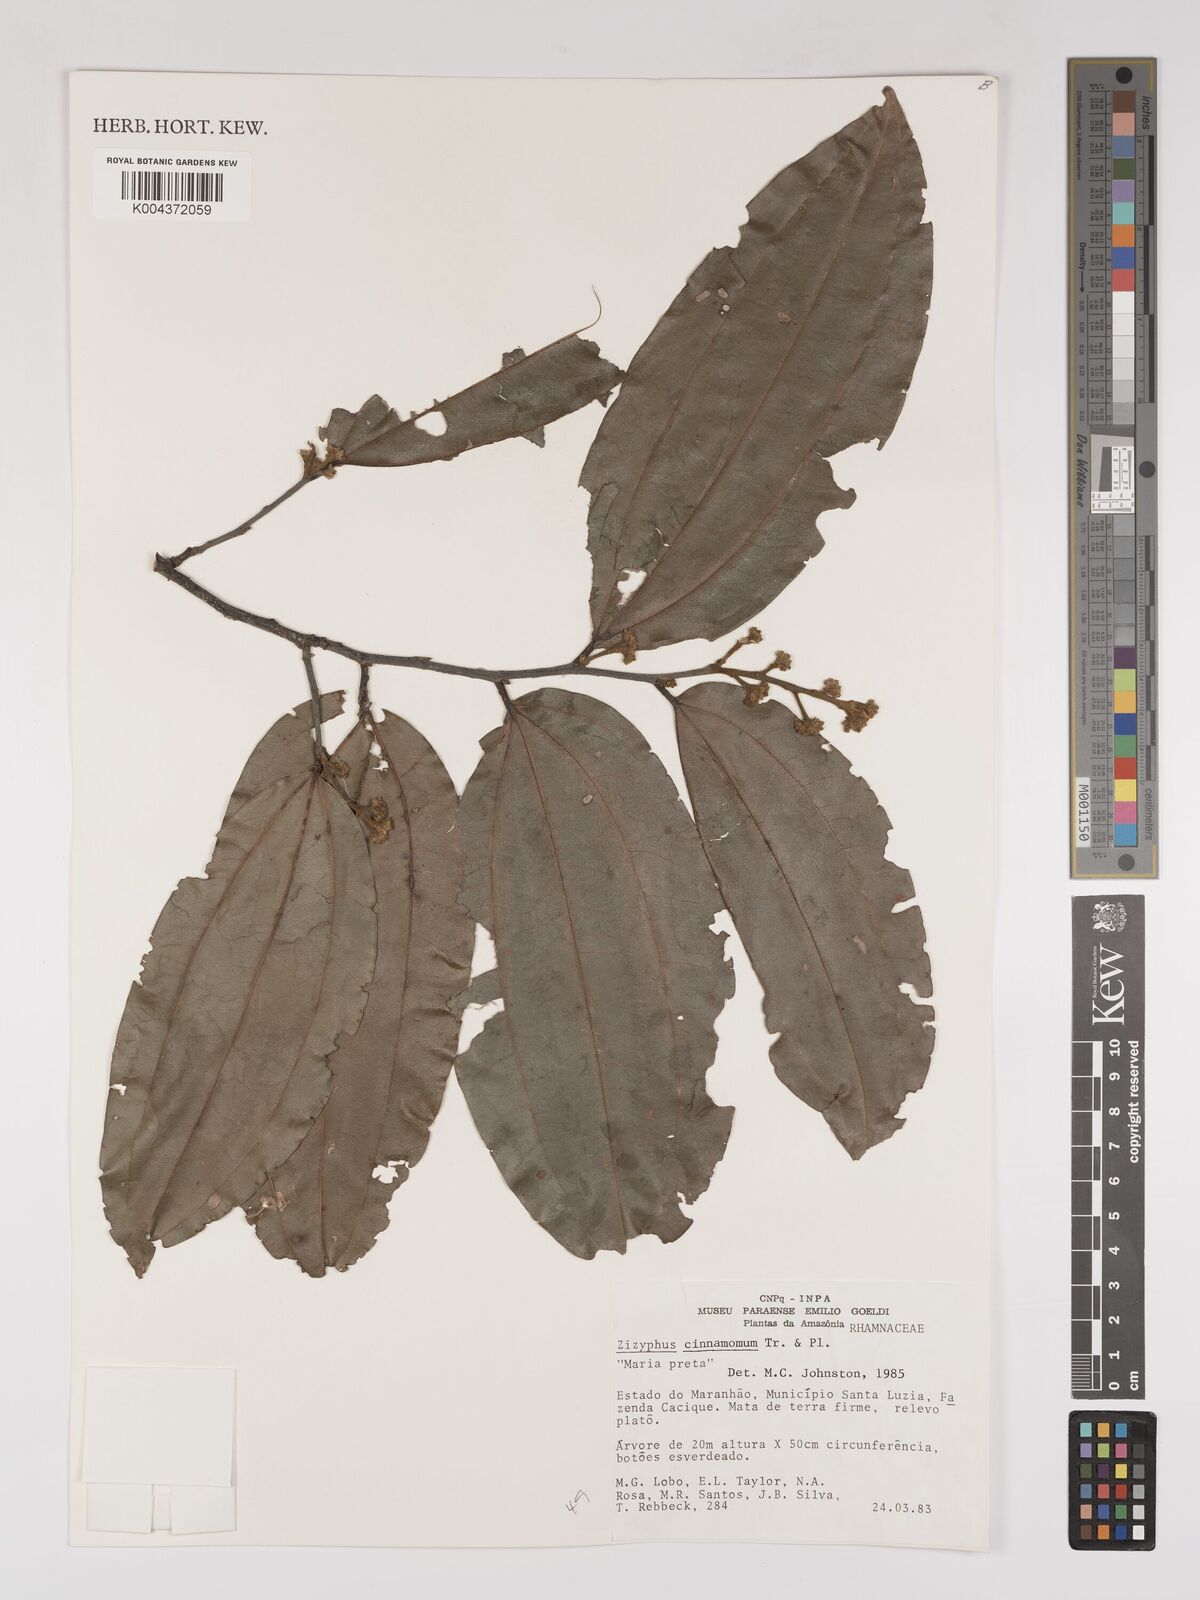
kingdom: Plantae
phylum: Tracheophyta
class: Magnoliopsida
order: Rosales
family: Rhamnaceae
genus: Sarcomphalus
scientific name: Sarcomphalus cinnamomum
